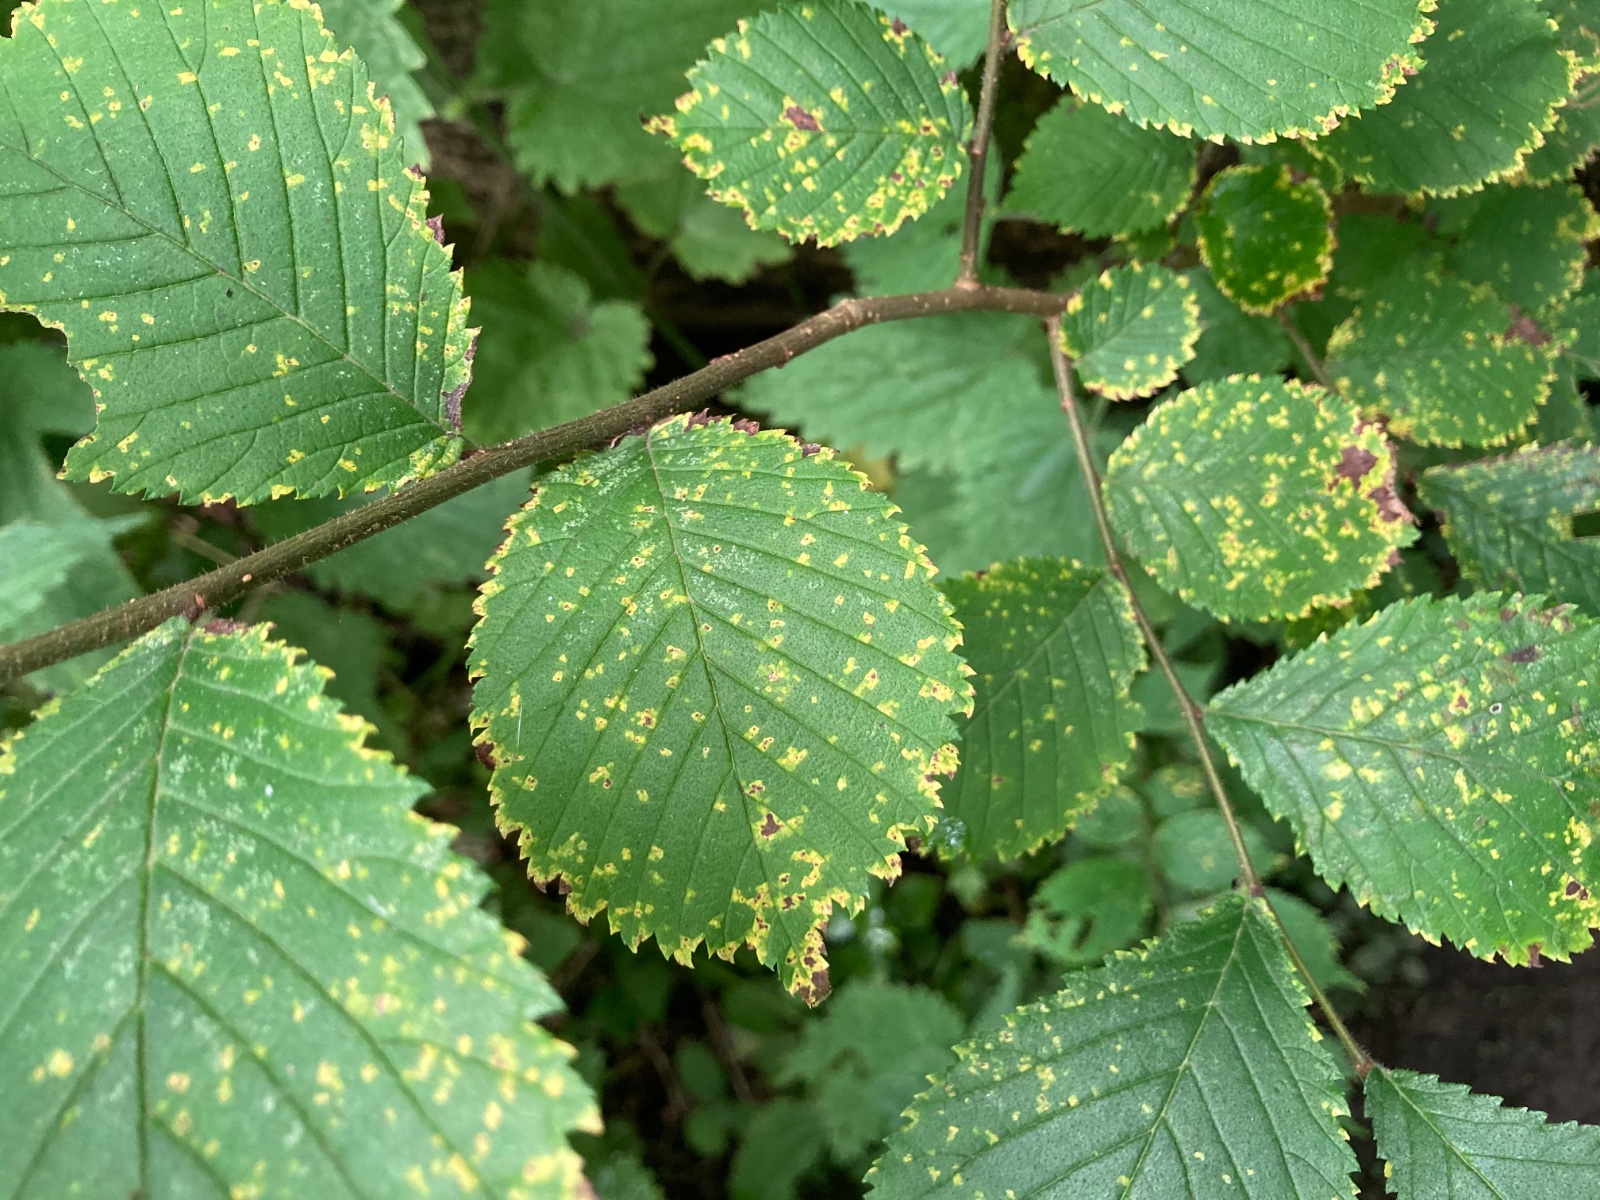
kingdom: Fungi
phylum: Ascomycota
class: Dothideomycetes
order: Mycosphaerellales
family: Mycosphaerellaceae
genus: Mycosphaerella
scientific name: Mycosphaerella ulmi
